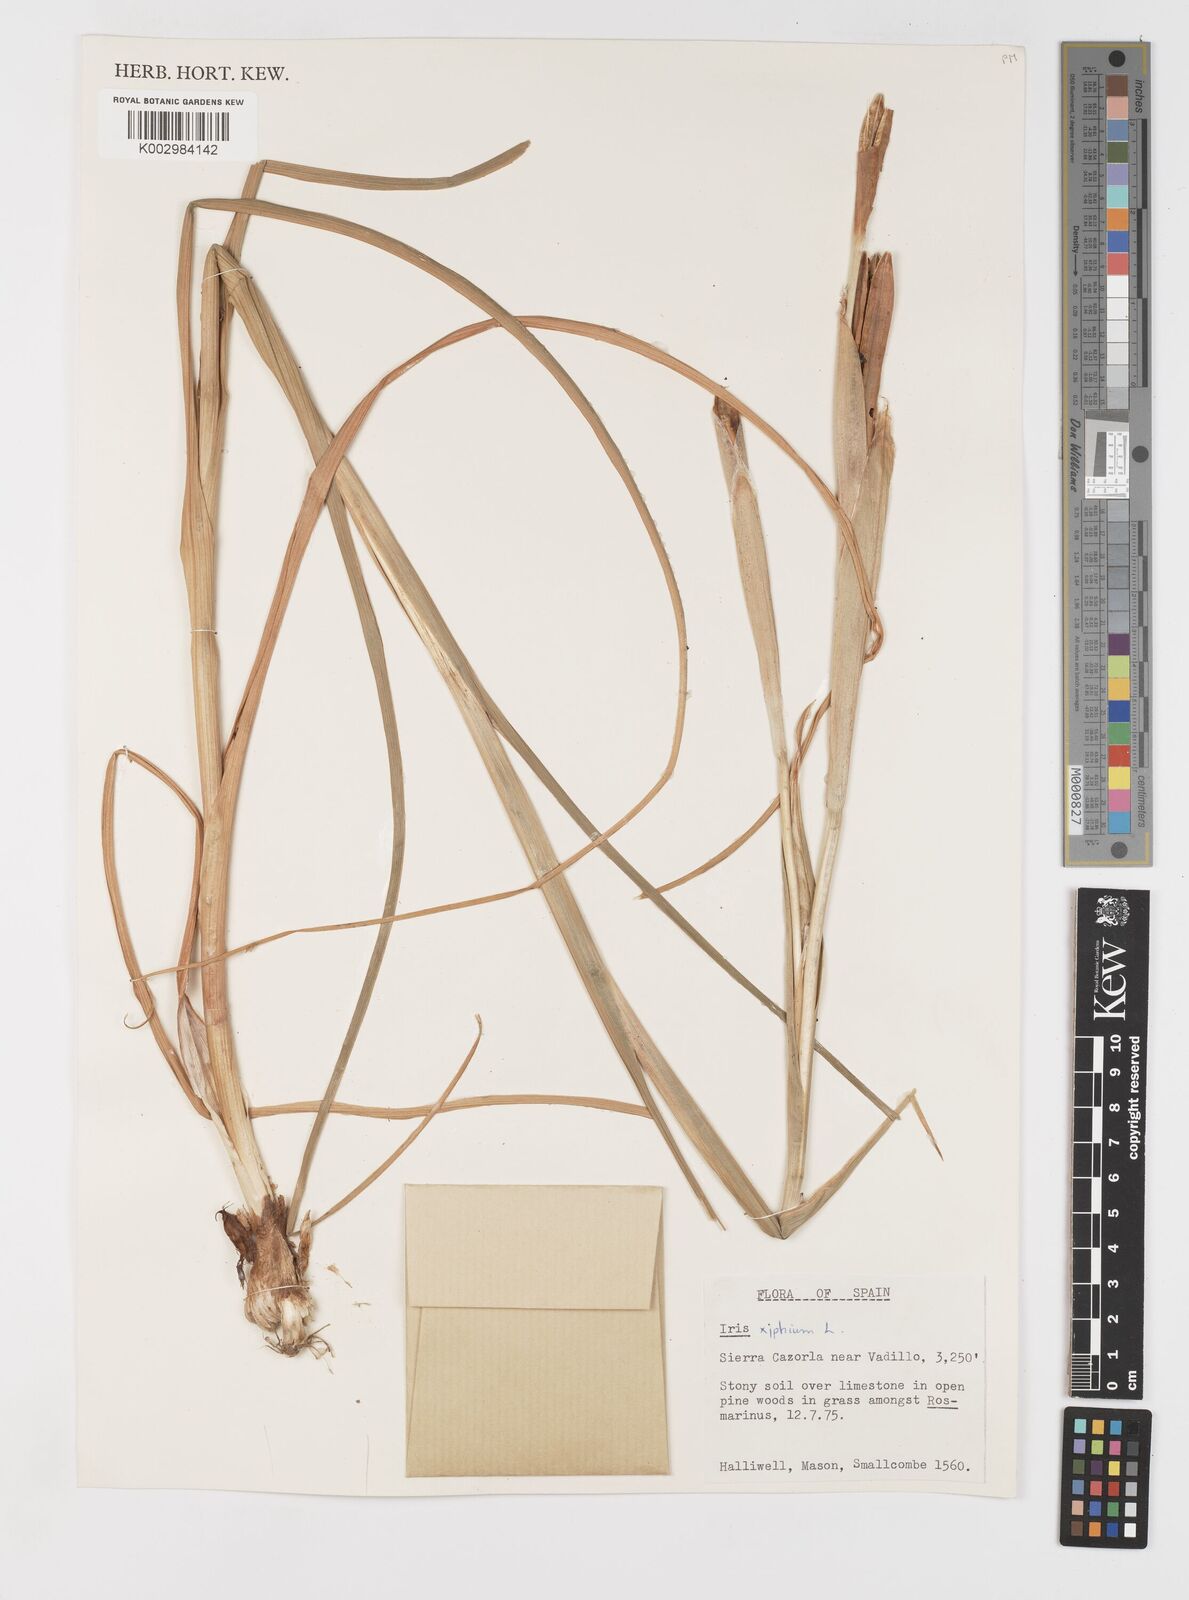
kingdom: Plantae
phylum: Tracheophyta
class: Liliopsida
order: Asparagales
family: Iridaceae
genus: Iris
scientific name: Iris xiphium
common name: Spanish iris
